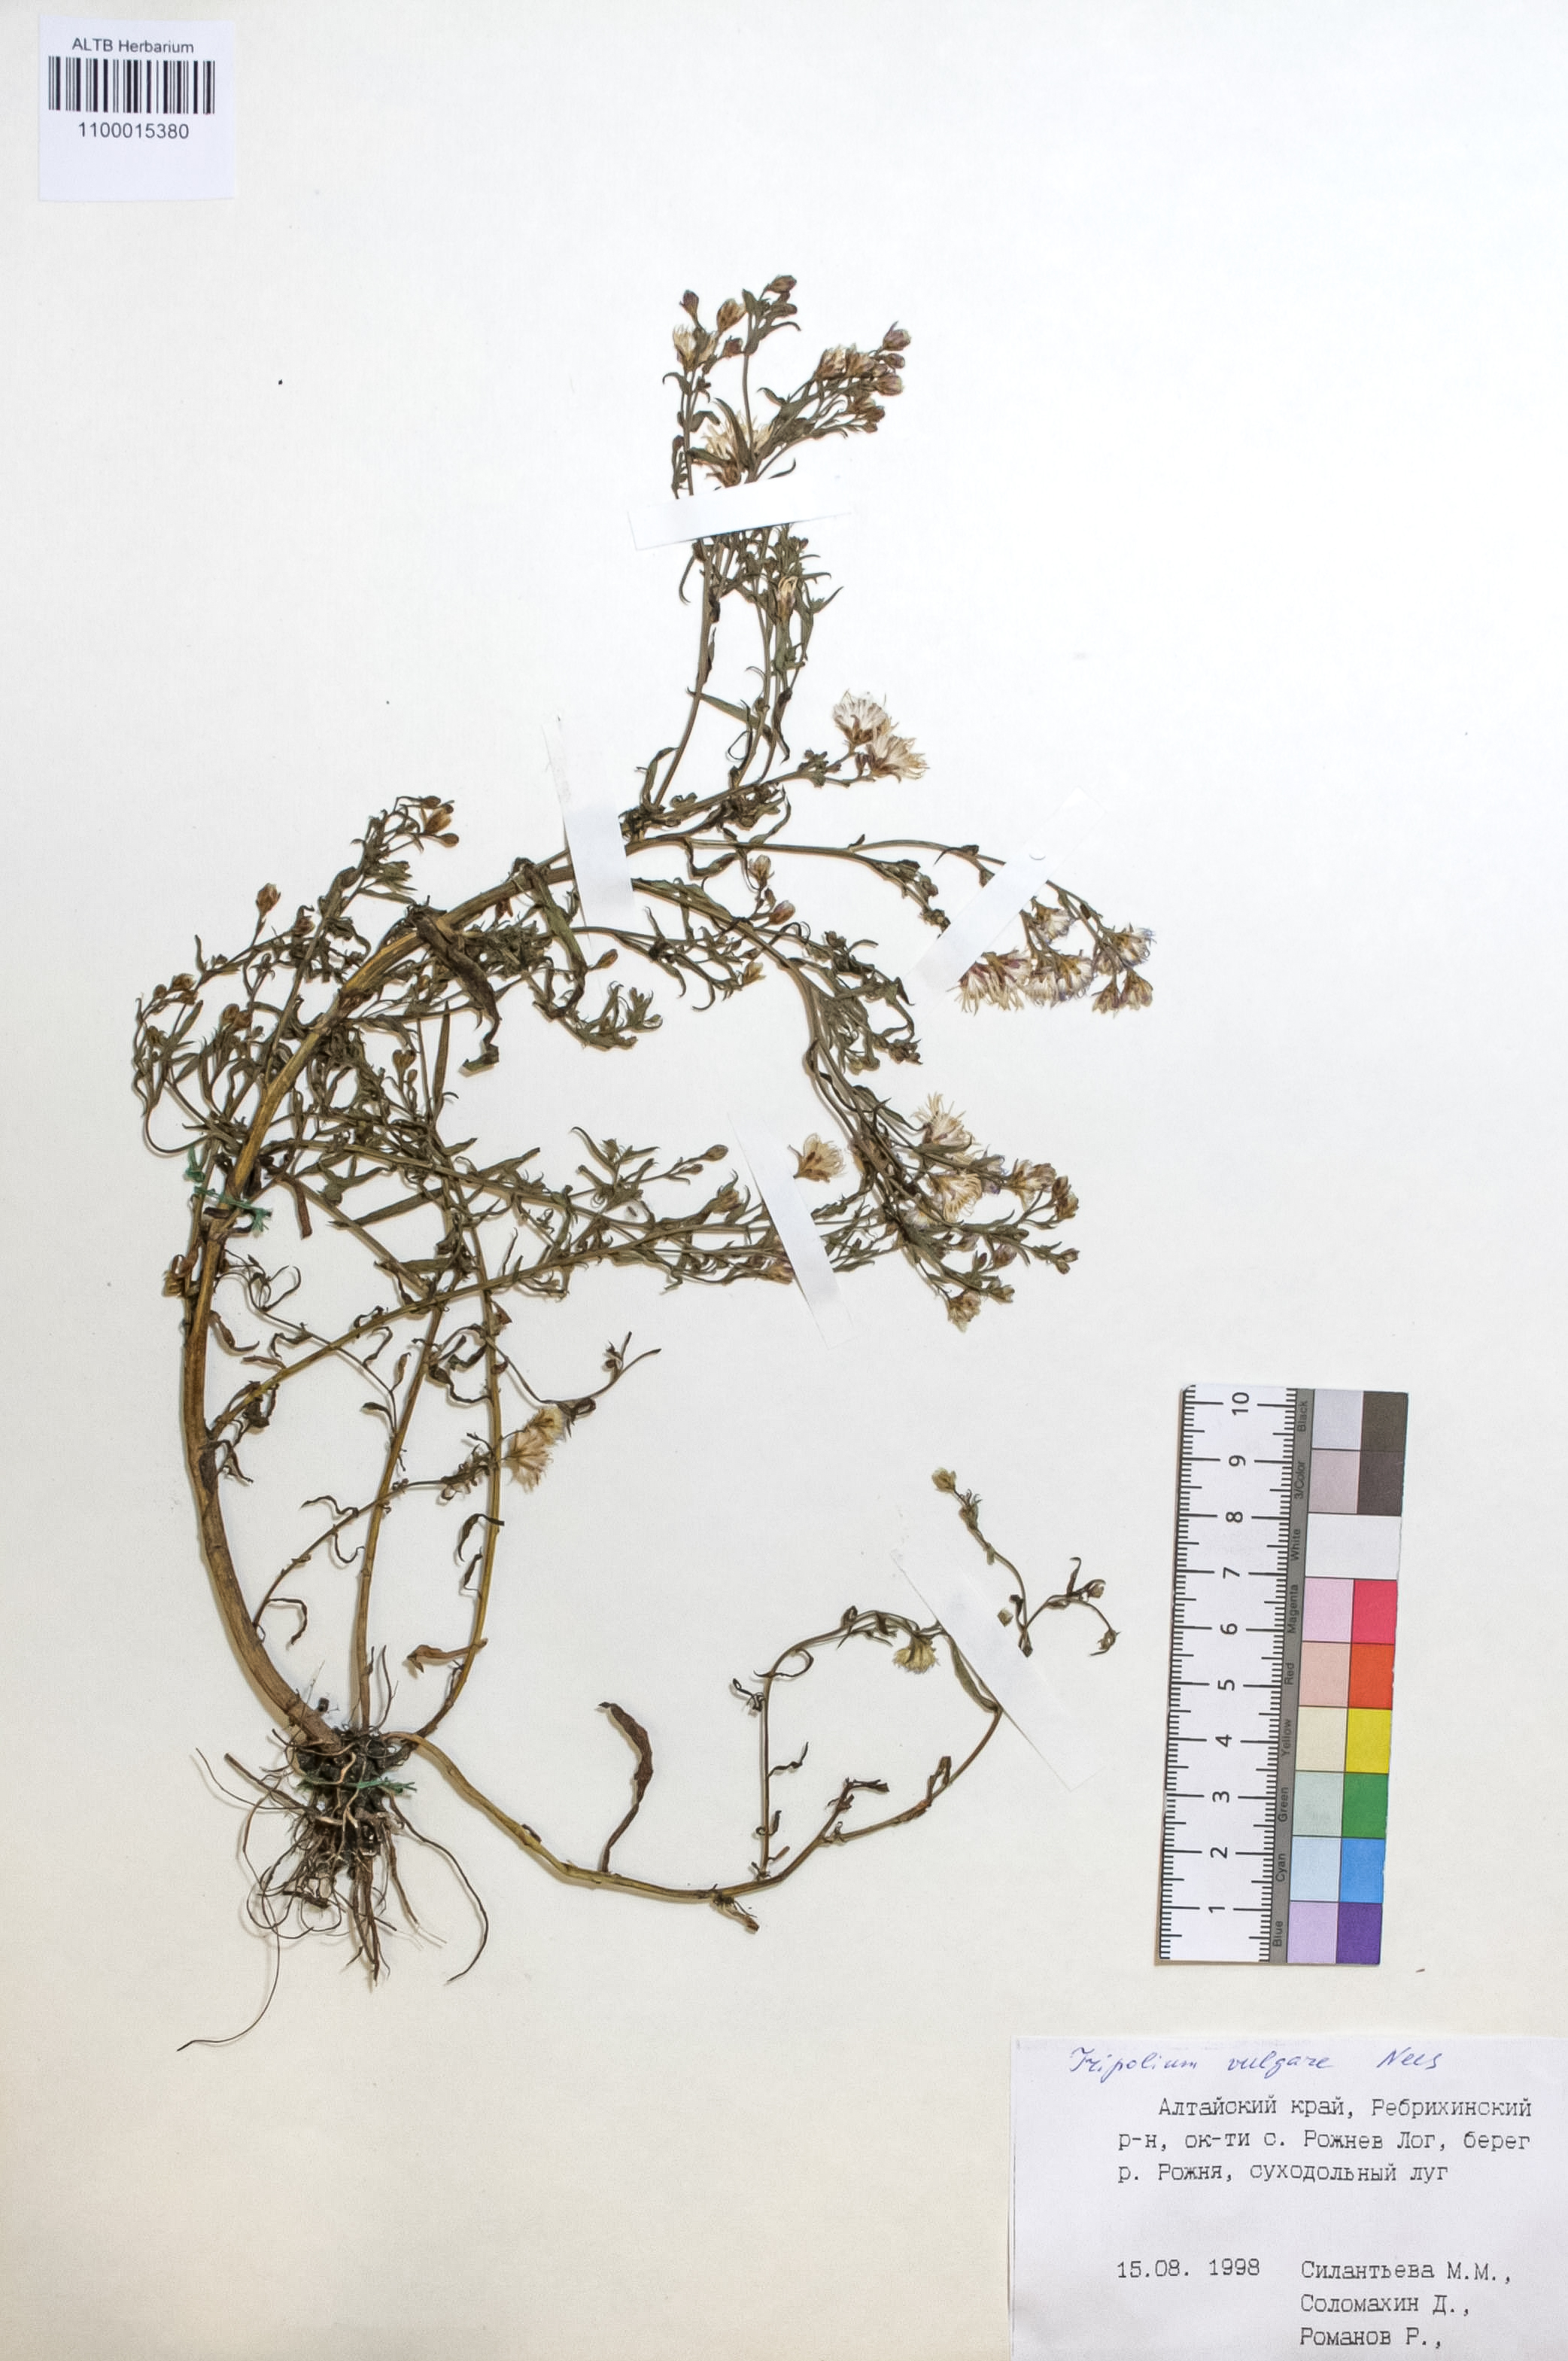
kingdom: Plantae
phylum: Tracheophyta
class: Magnoliopsida
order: Asterales
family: Asteraceae
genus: Tripolium
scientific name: Tripolium pannonicum
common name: Sea aster
